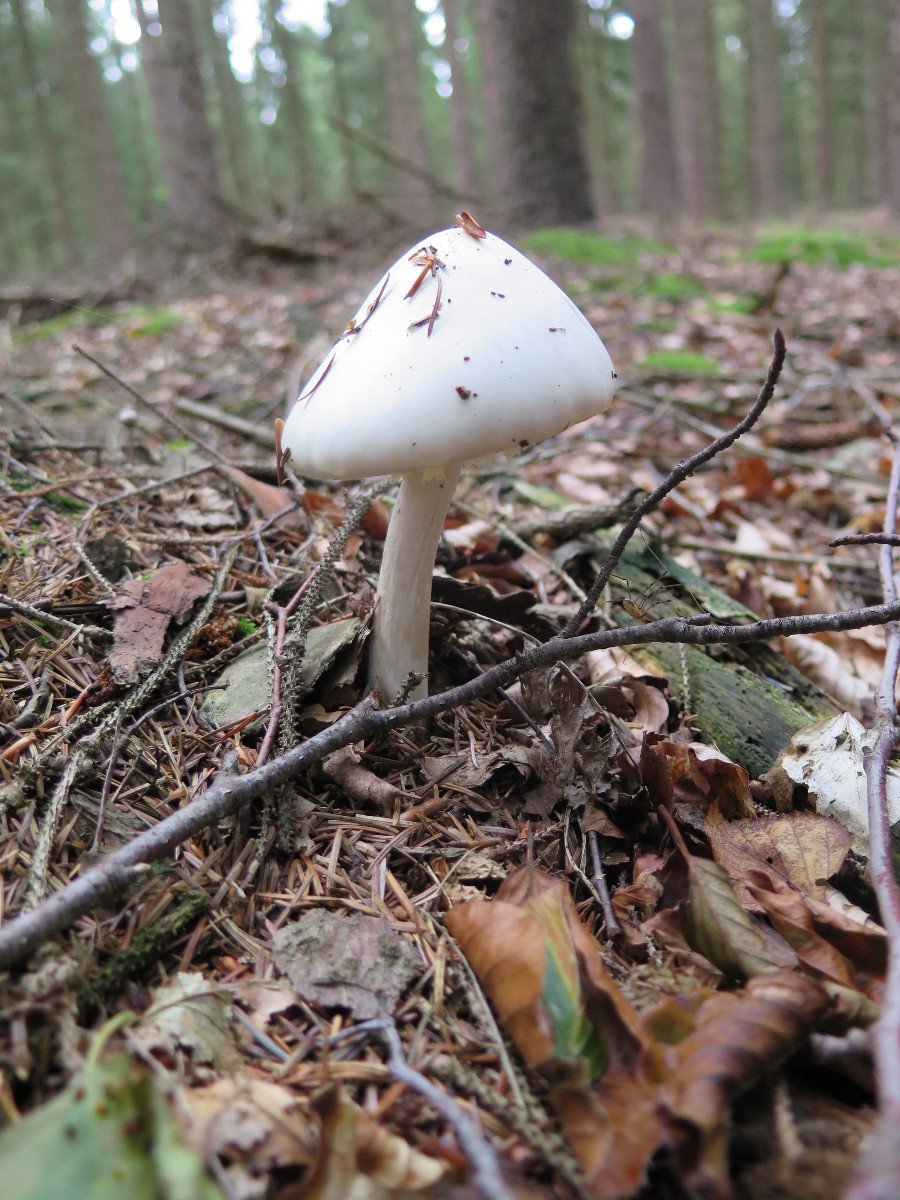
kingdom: Fungi
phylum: Basidiomycota
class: Agaricomycetes
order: Agaricales
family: Amanitaceae
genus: Amanita
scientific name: Amanita virosa
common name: snehvid fluesvamp
